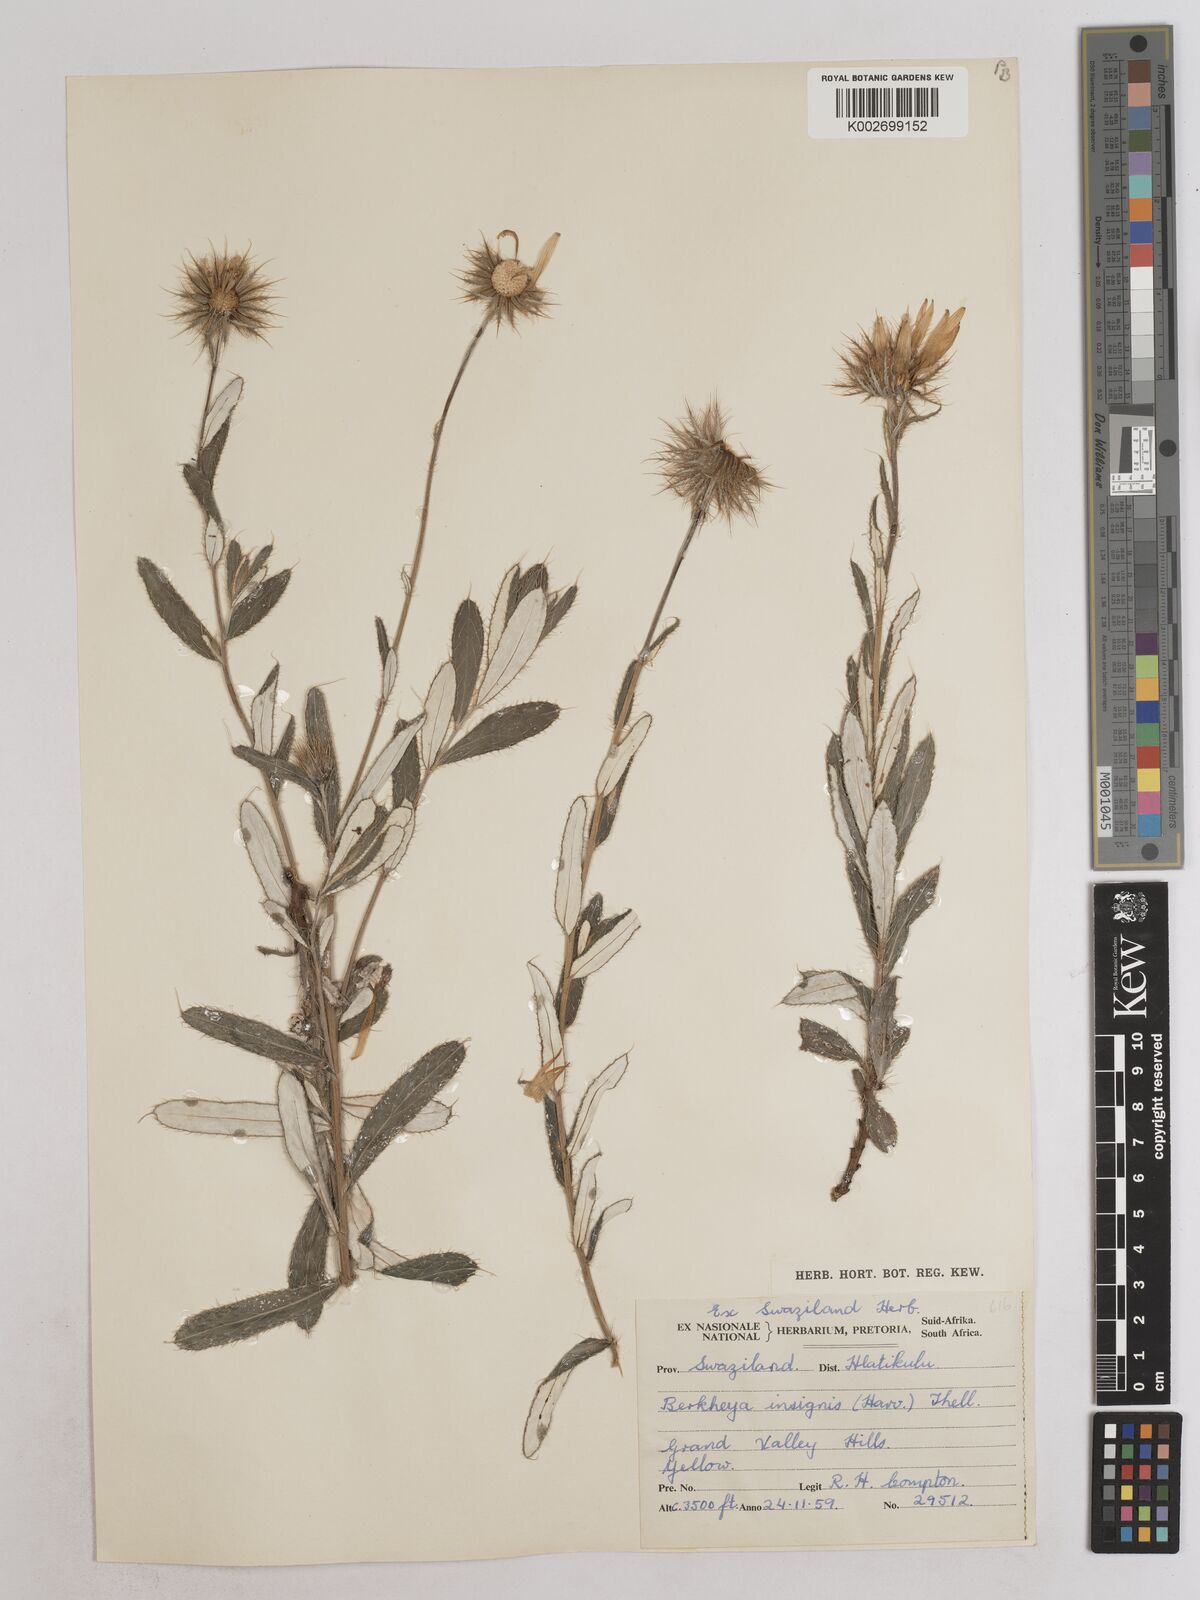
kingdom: Plantae
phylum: Tracheophyta
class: Magnoliopsida
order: Asterales
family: Asteraceae
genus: Berkheya
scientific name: Berkheya seminivea
